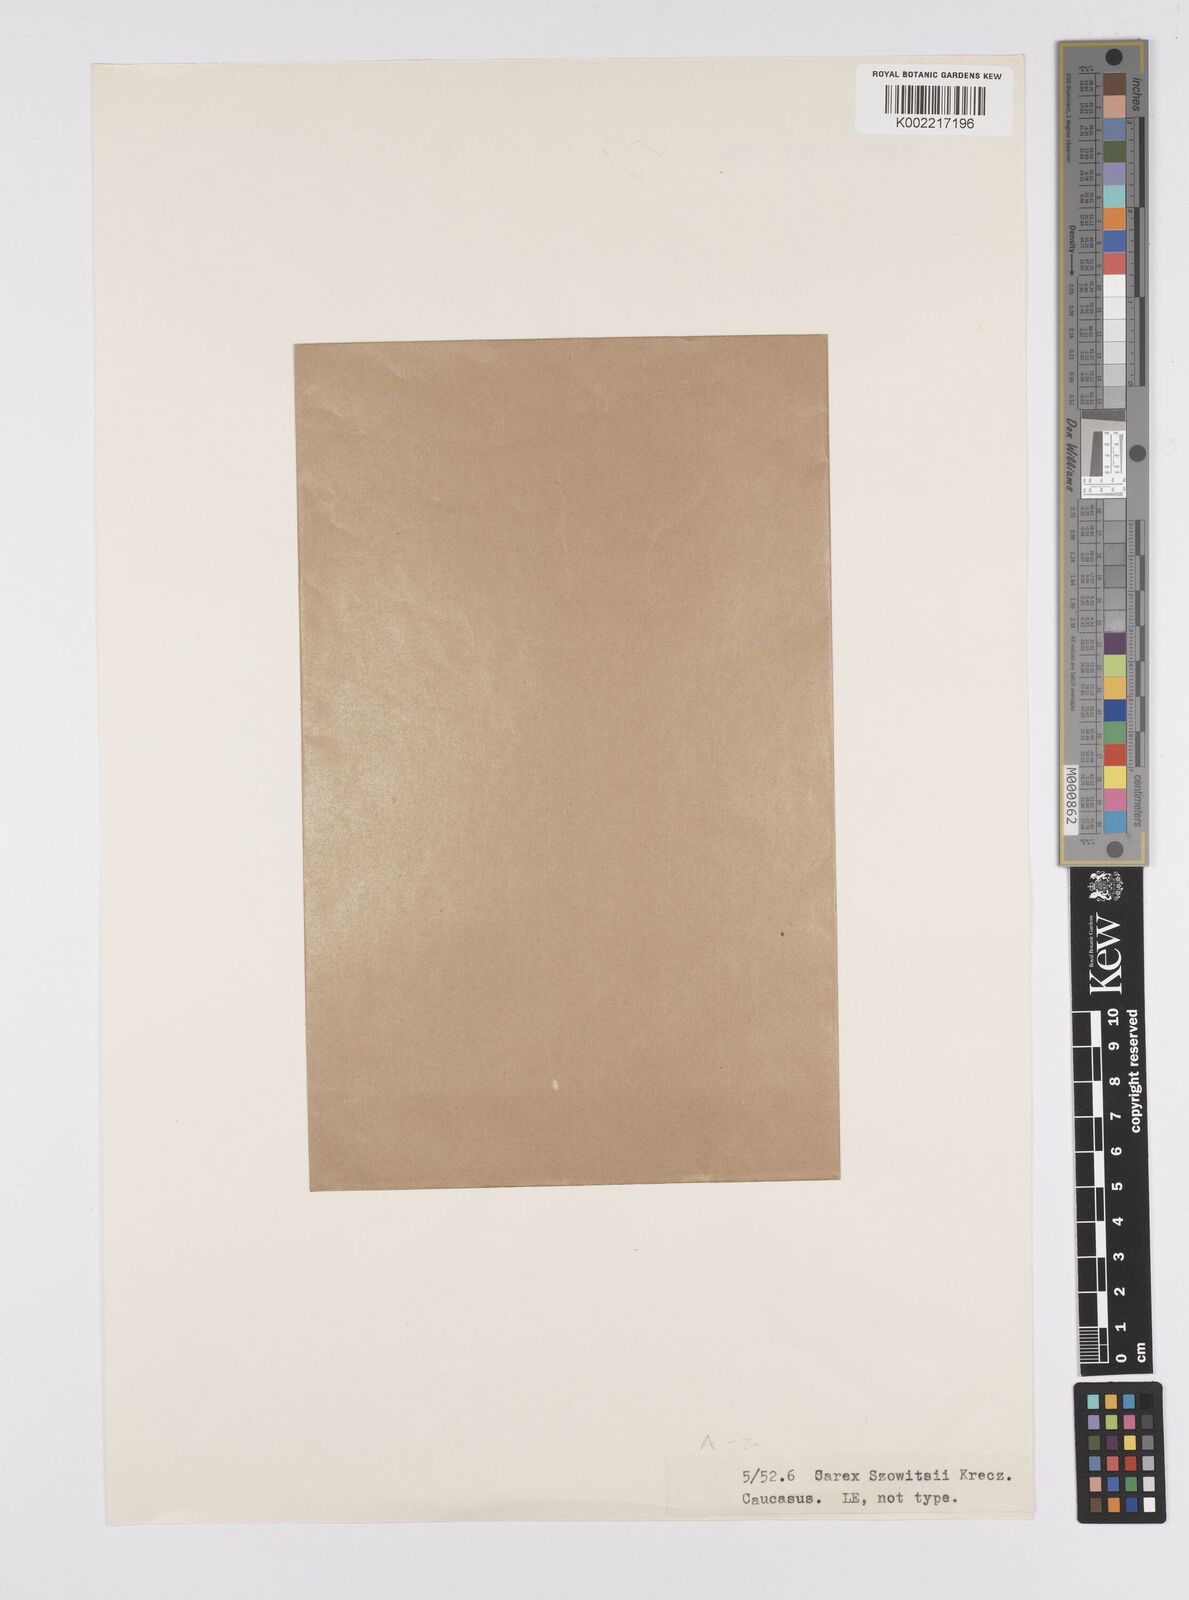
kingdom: Plantae
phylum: Tracheophyta
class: Liliopsida
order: Poales
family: Cyperaceae
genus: Carex
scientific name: Carex paniculata
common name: Greater tussock-sedge
